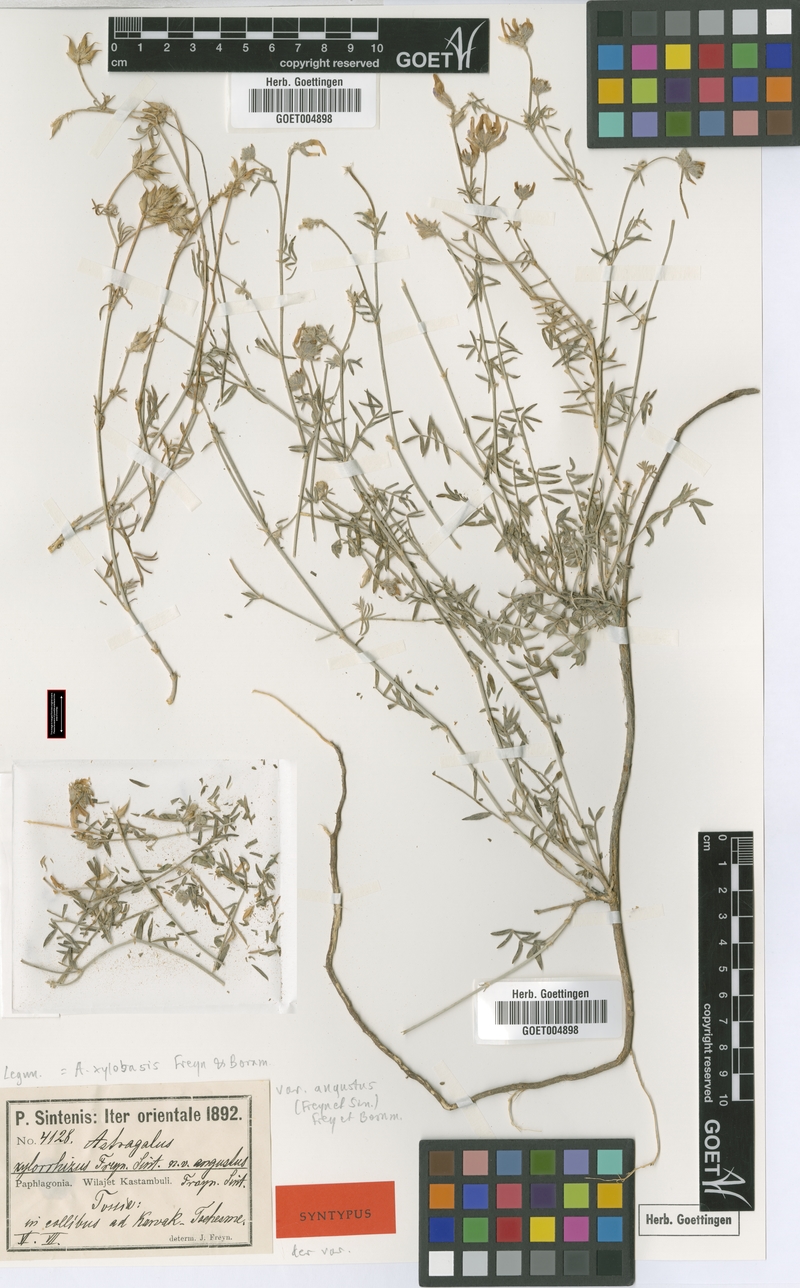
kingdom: Plantae
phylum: Tracheophyta
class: Magnoliopsida
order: Fabales
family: Fabaceae
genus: Astragalus
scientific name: Astragalus aduncus
